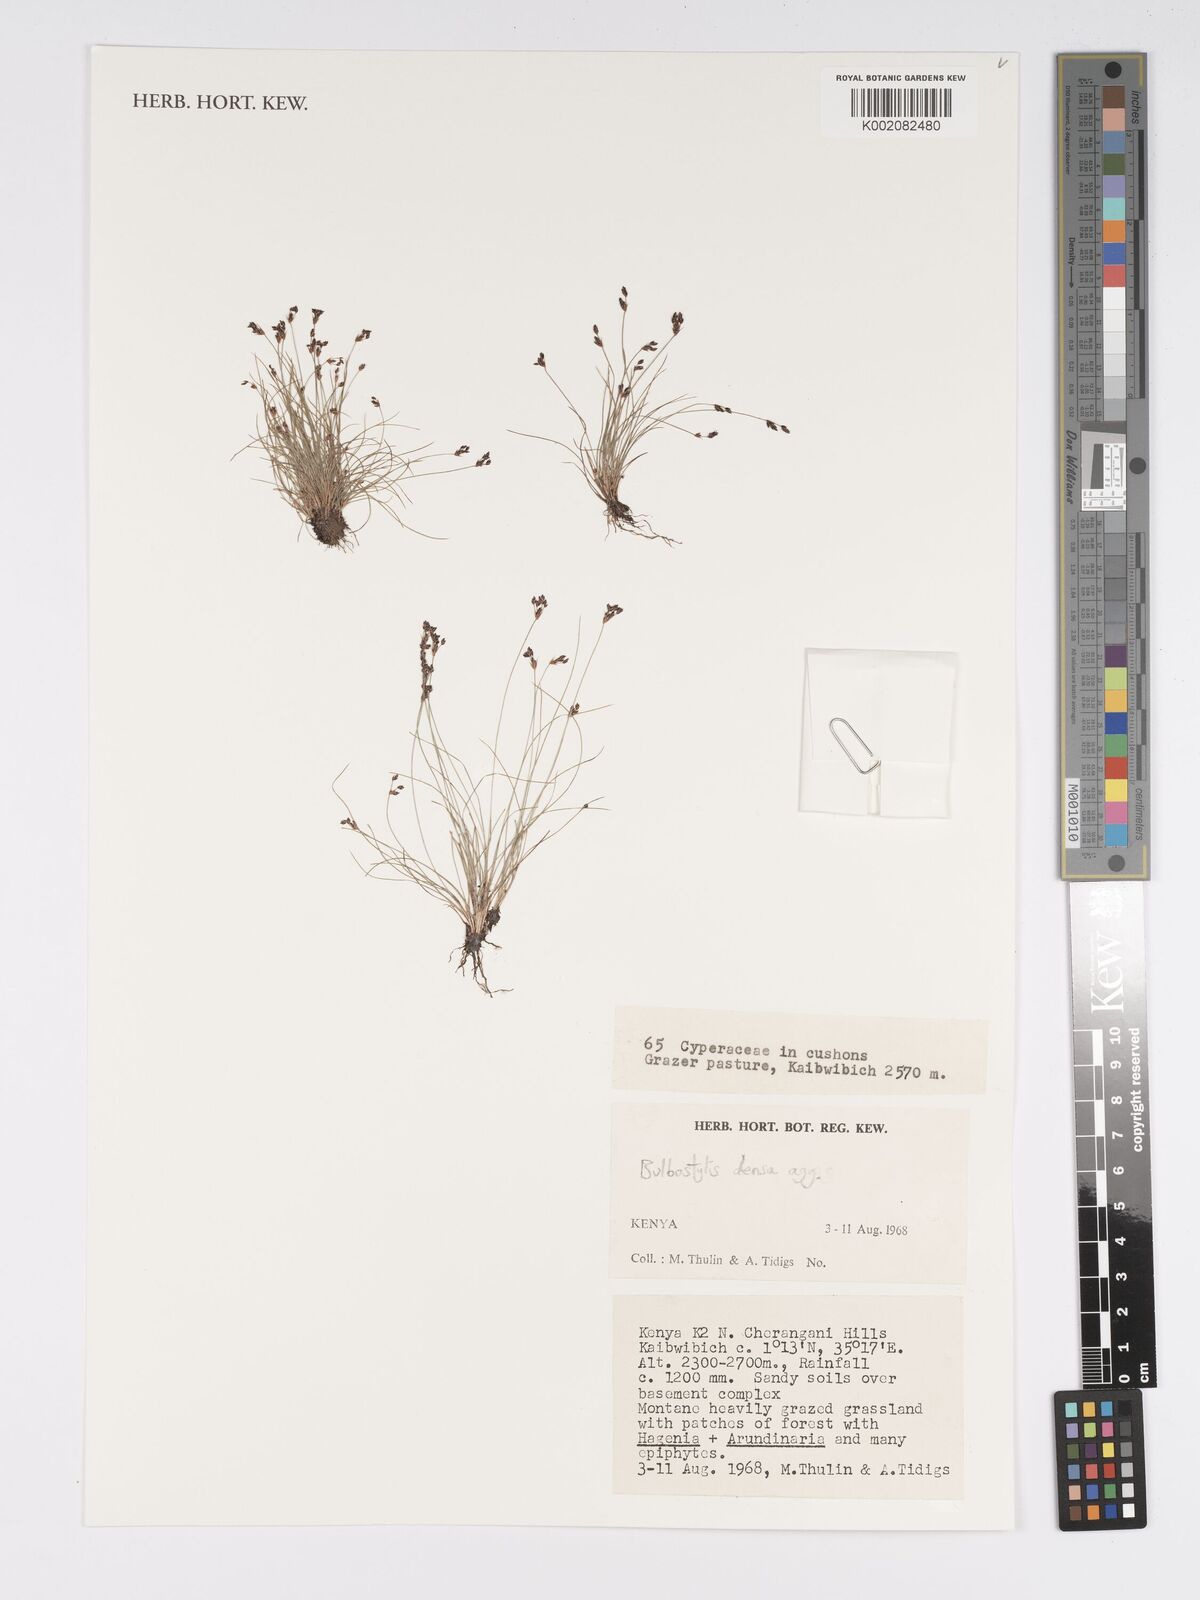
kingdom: Plantae
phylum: Tracheophyta
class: Liliopsida
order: Poales
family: Cyperaceae
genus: Bulbostylis
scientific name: Bulbostylis densa
